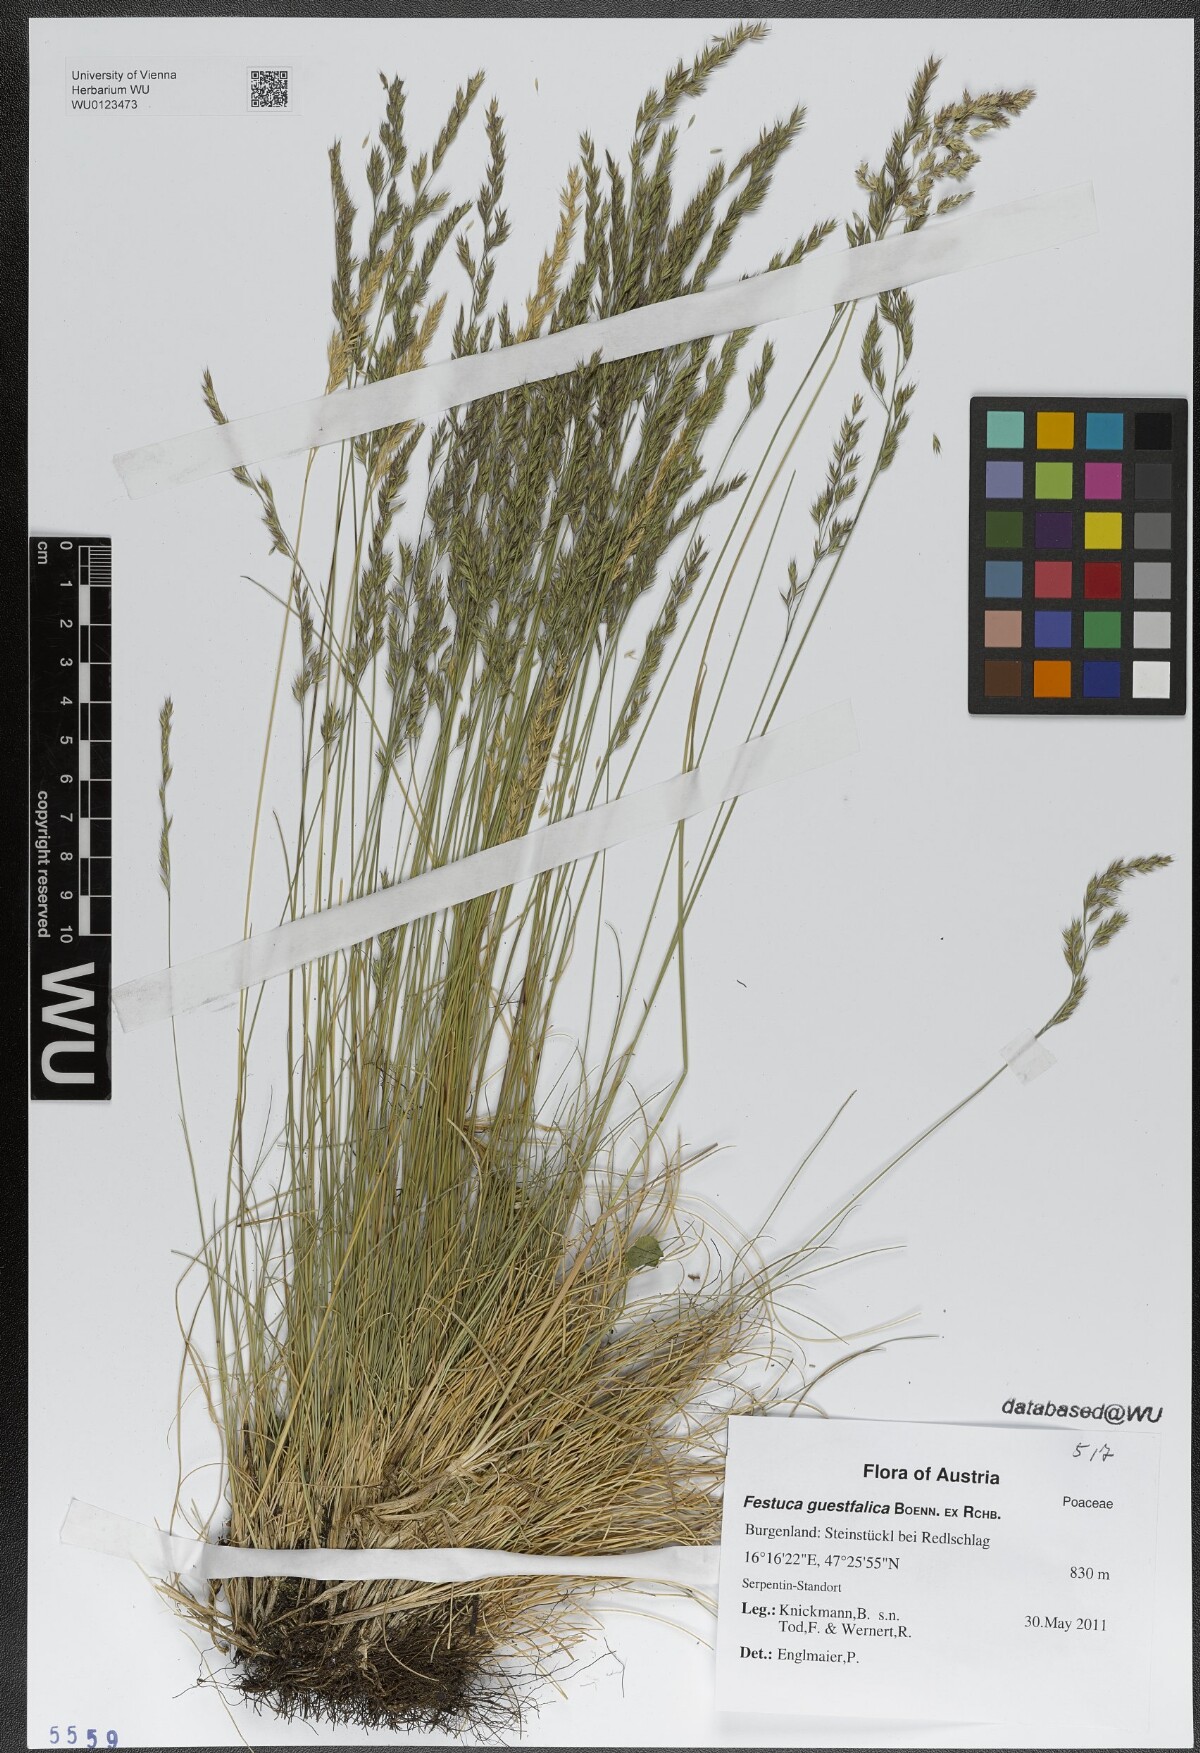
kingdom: Plantae
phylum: Tracheophyta
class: Liliopsida
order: Poales
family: Poaceae
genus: Festuca
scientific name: Festuca guestfalica
